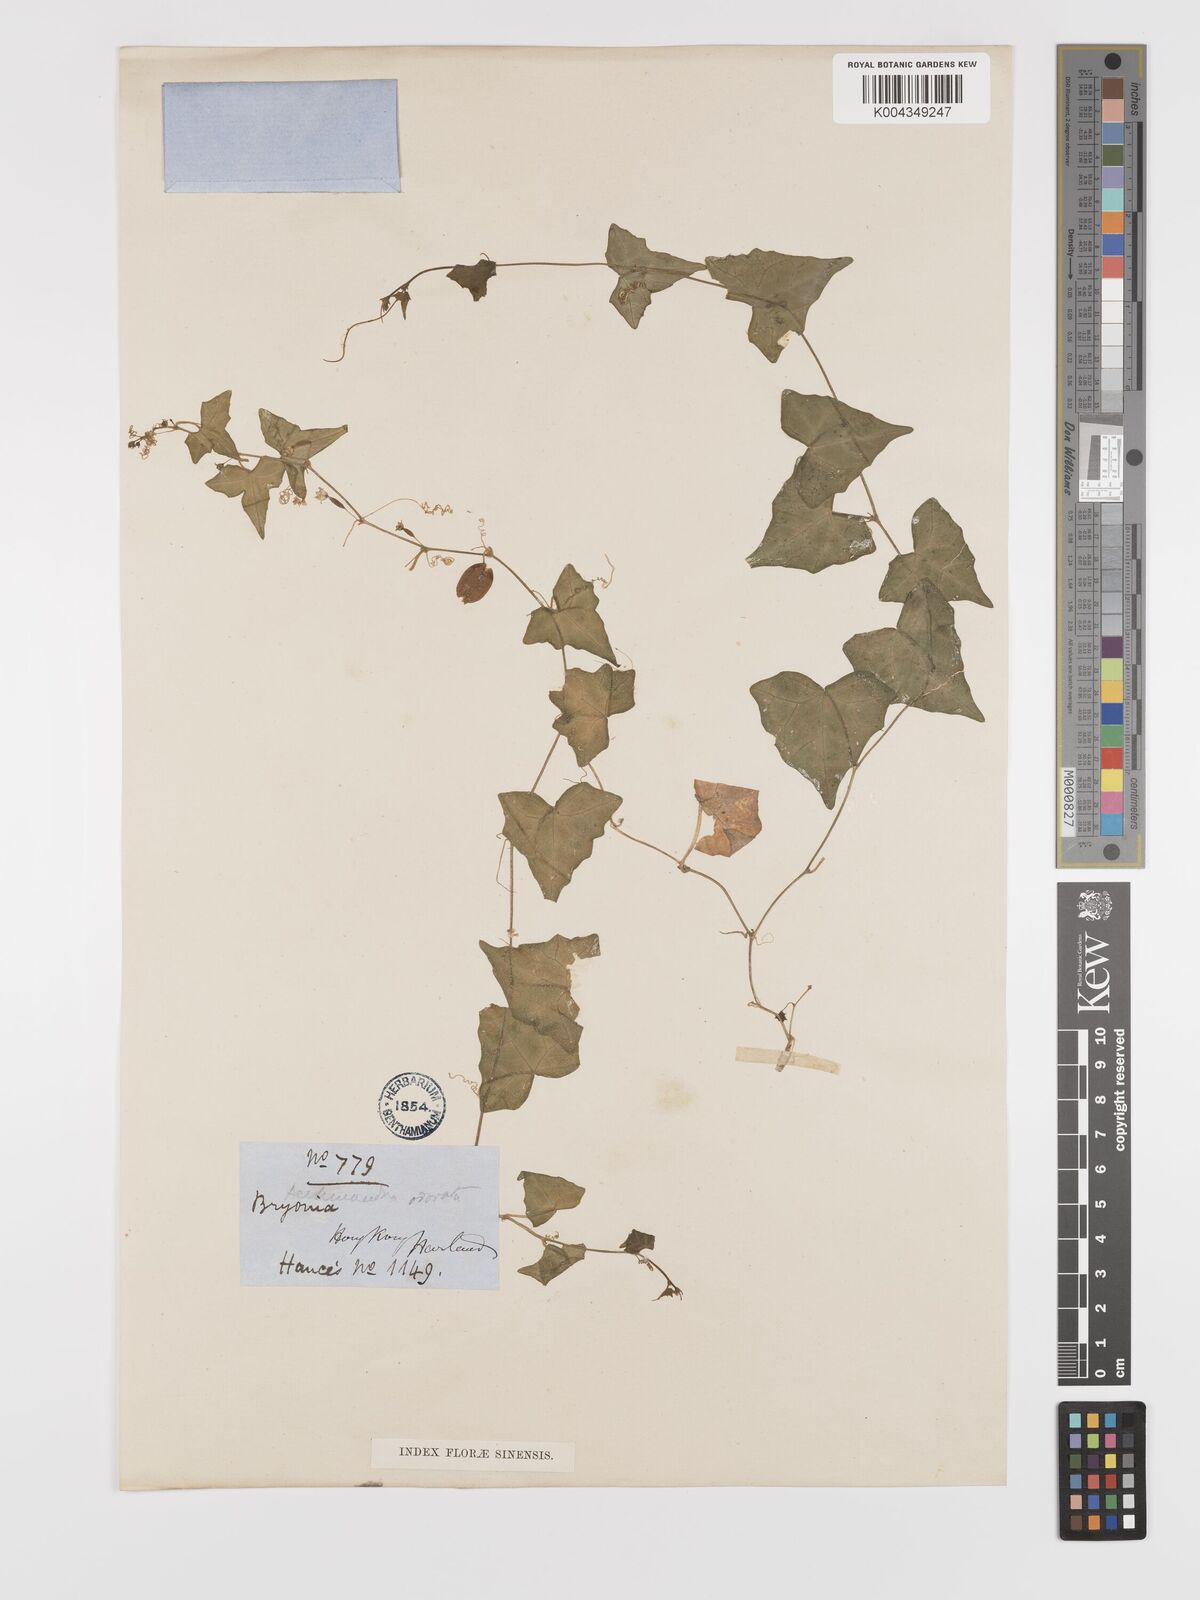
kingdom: Plantae
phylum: Tracheophyta
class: Magnoliopsida
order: Cucurbitales
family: Cucurbitaceae
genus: Zehneria
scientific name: Zehneria japonica
